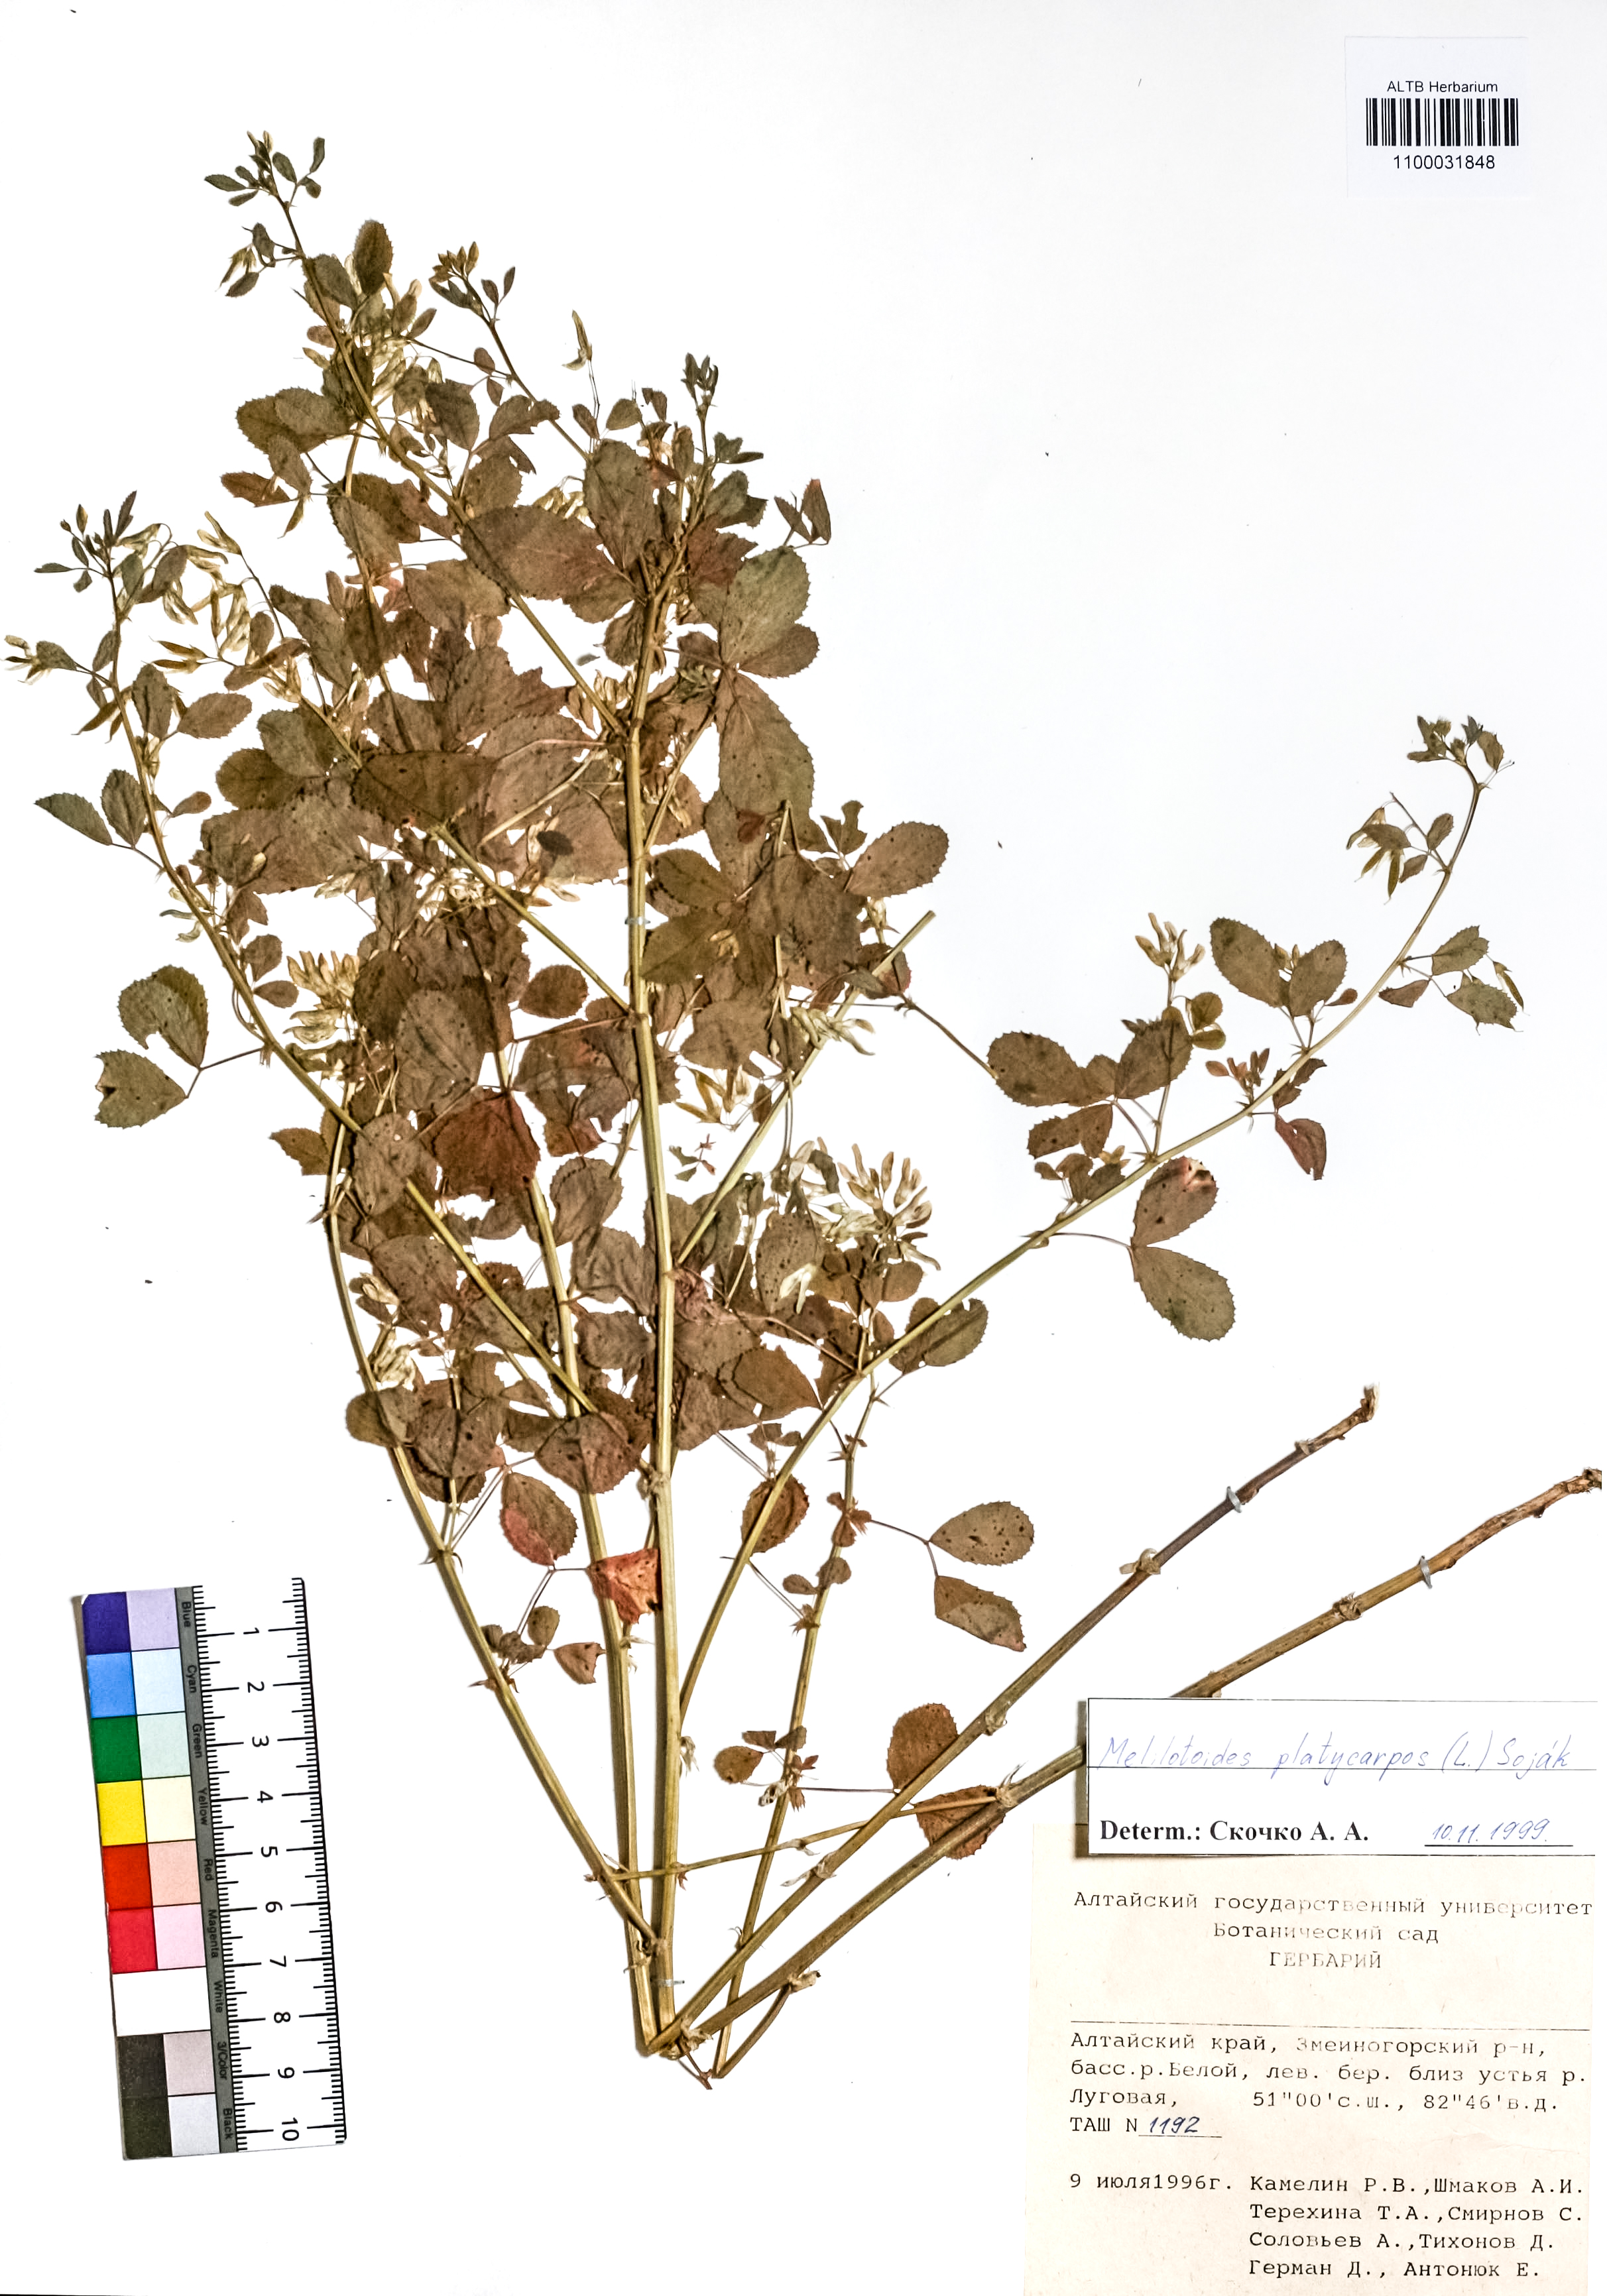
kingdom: Plantae
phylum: Tracheophyta
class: Magnoliopsida
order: Fabales
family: Fabaceae
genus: Medicago
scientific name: Medicago platycarpos
